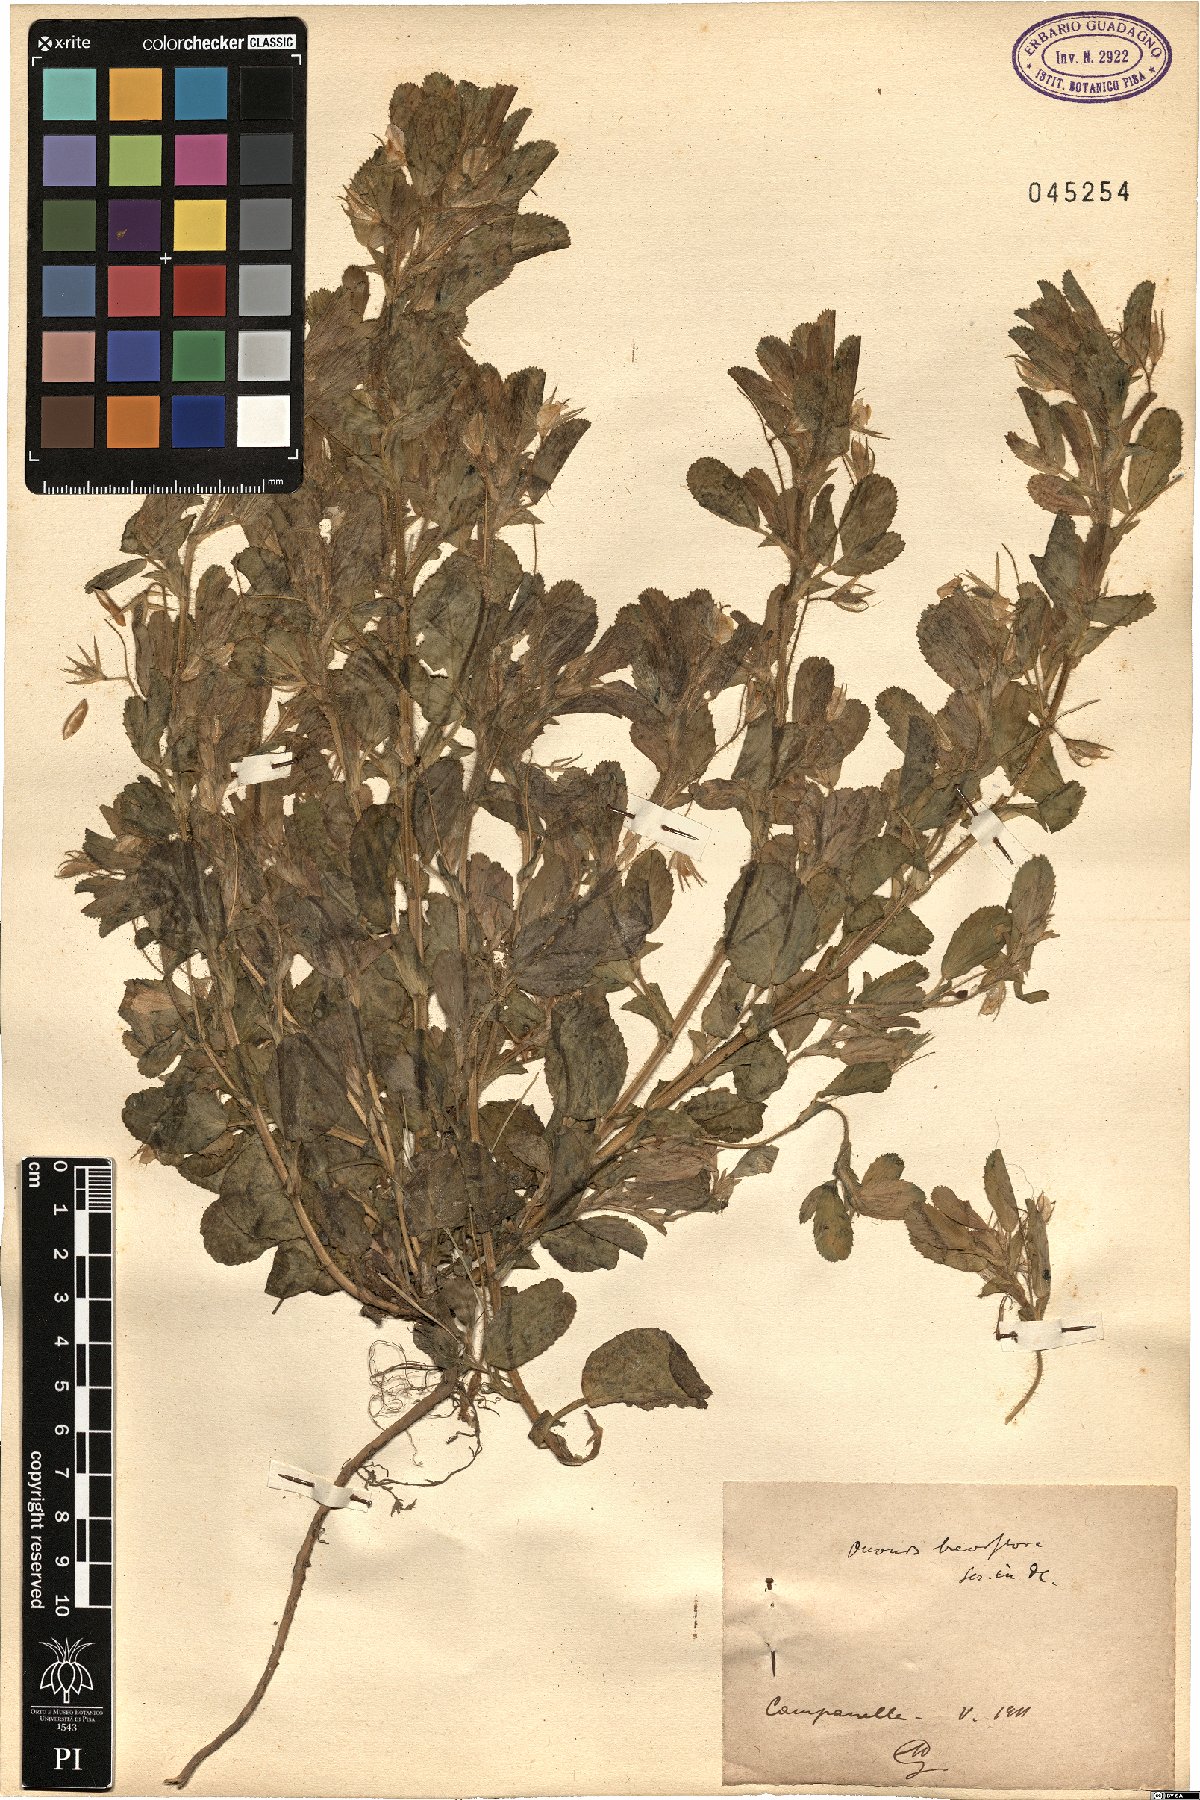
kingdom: Plantae
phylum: Tracheophyta
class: Magnoliopsida
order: Fabales
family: Fabaceae
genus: Ononis
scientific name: Ononis viscosa
